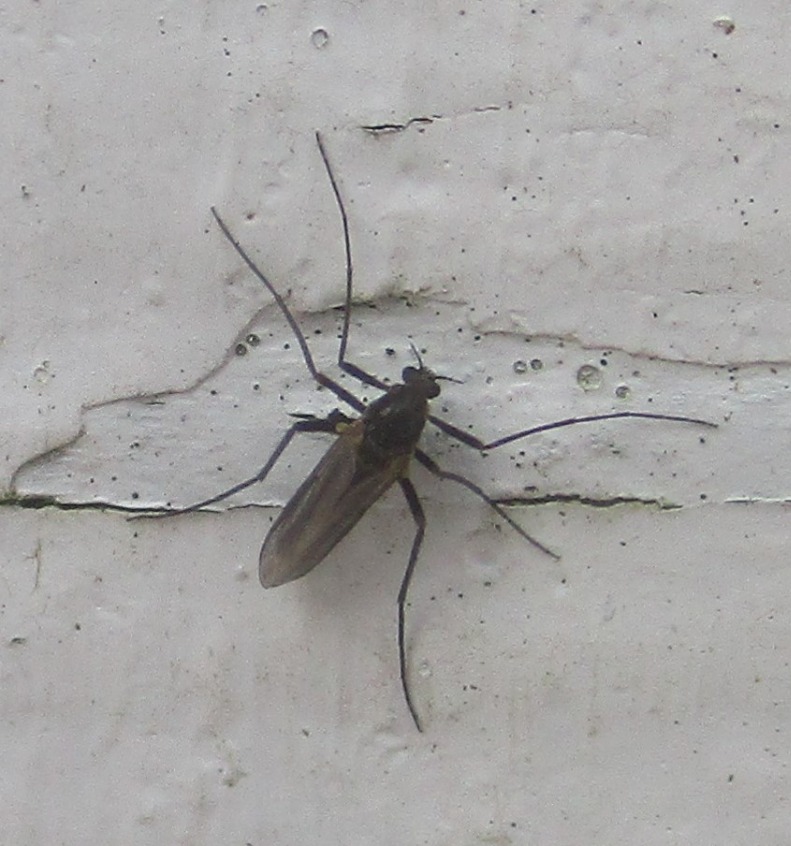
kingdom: Animalia
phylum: Arthropoda
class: Insecta
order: Diptera
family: Chironomidae
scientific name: Chironomidae
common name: Dansemyg
